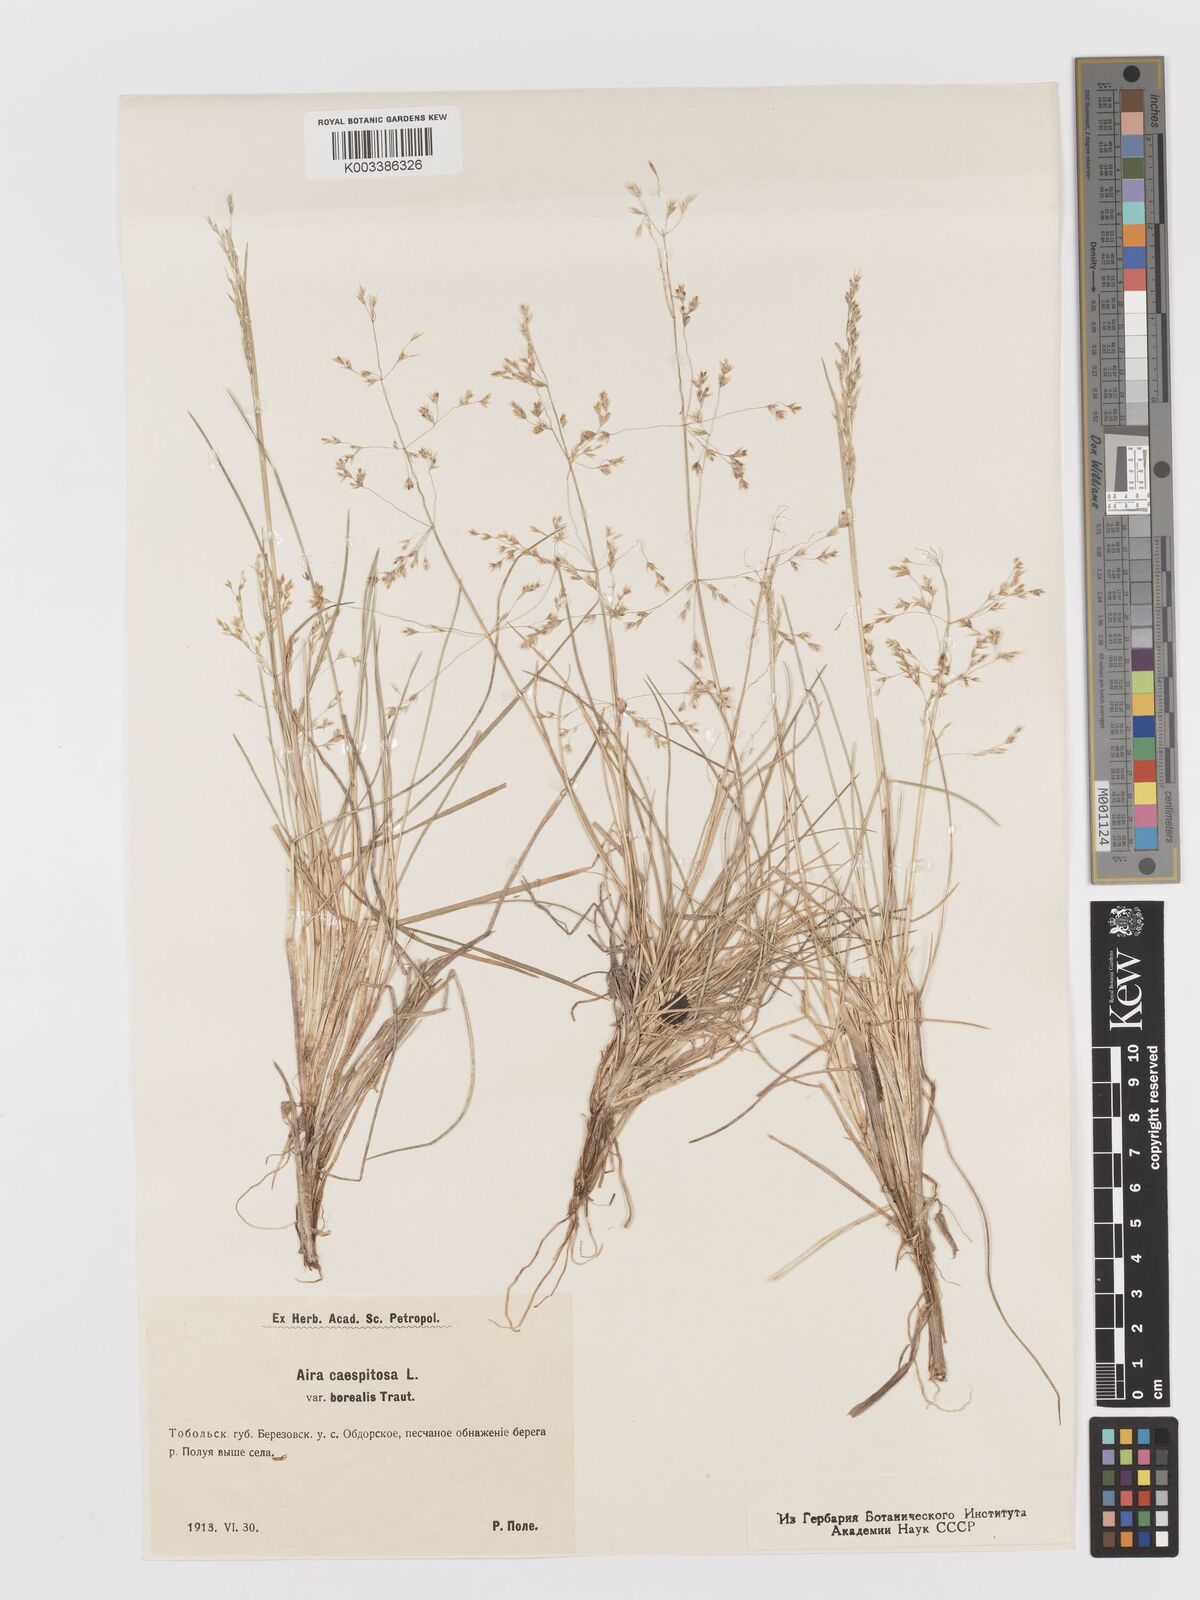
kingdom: Plantae
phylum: Tracheophyta
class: Liliopsida
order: Poales
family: Poaceae
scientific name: Poaceae
